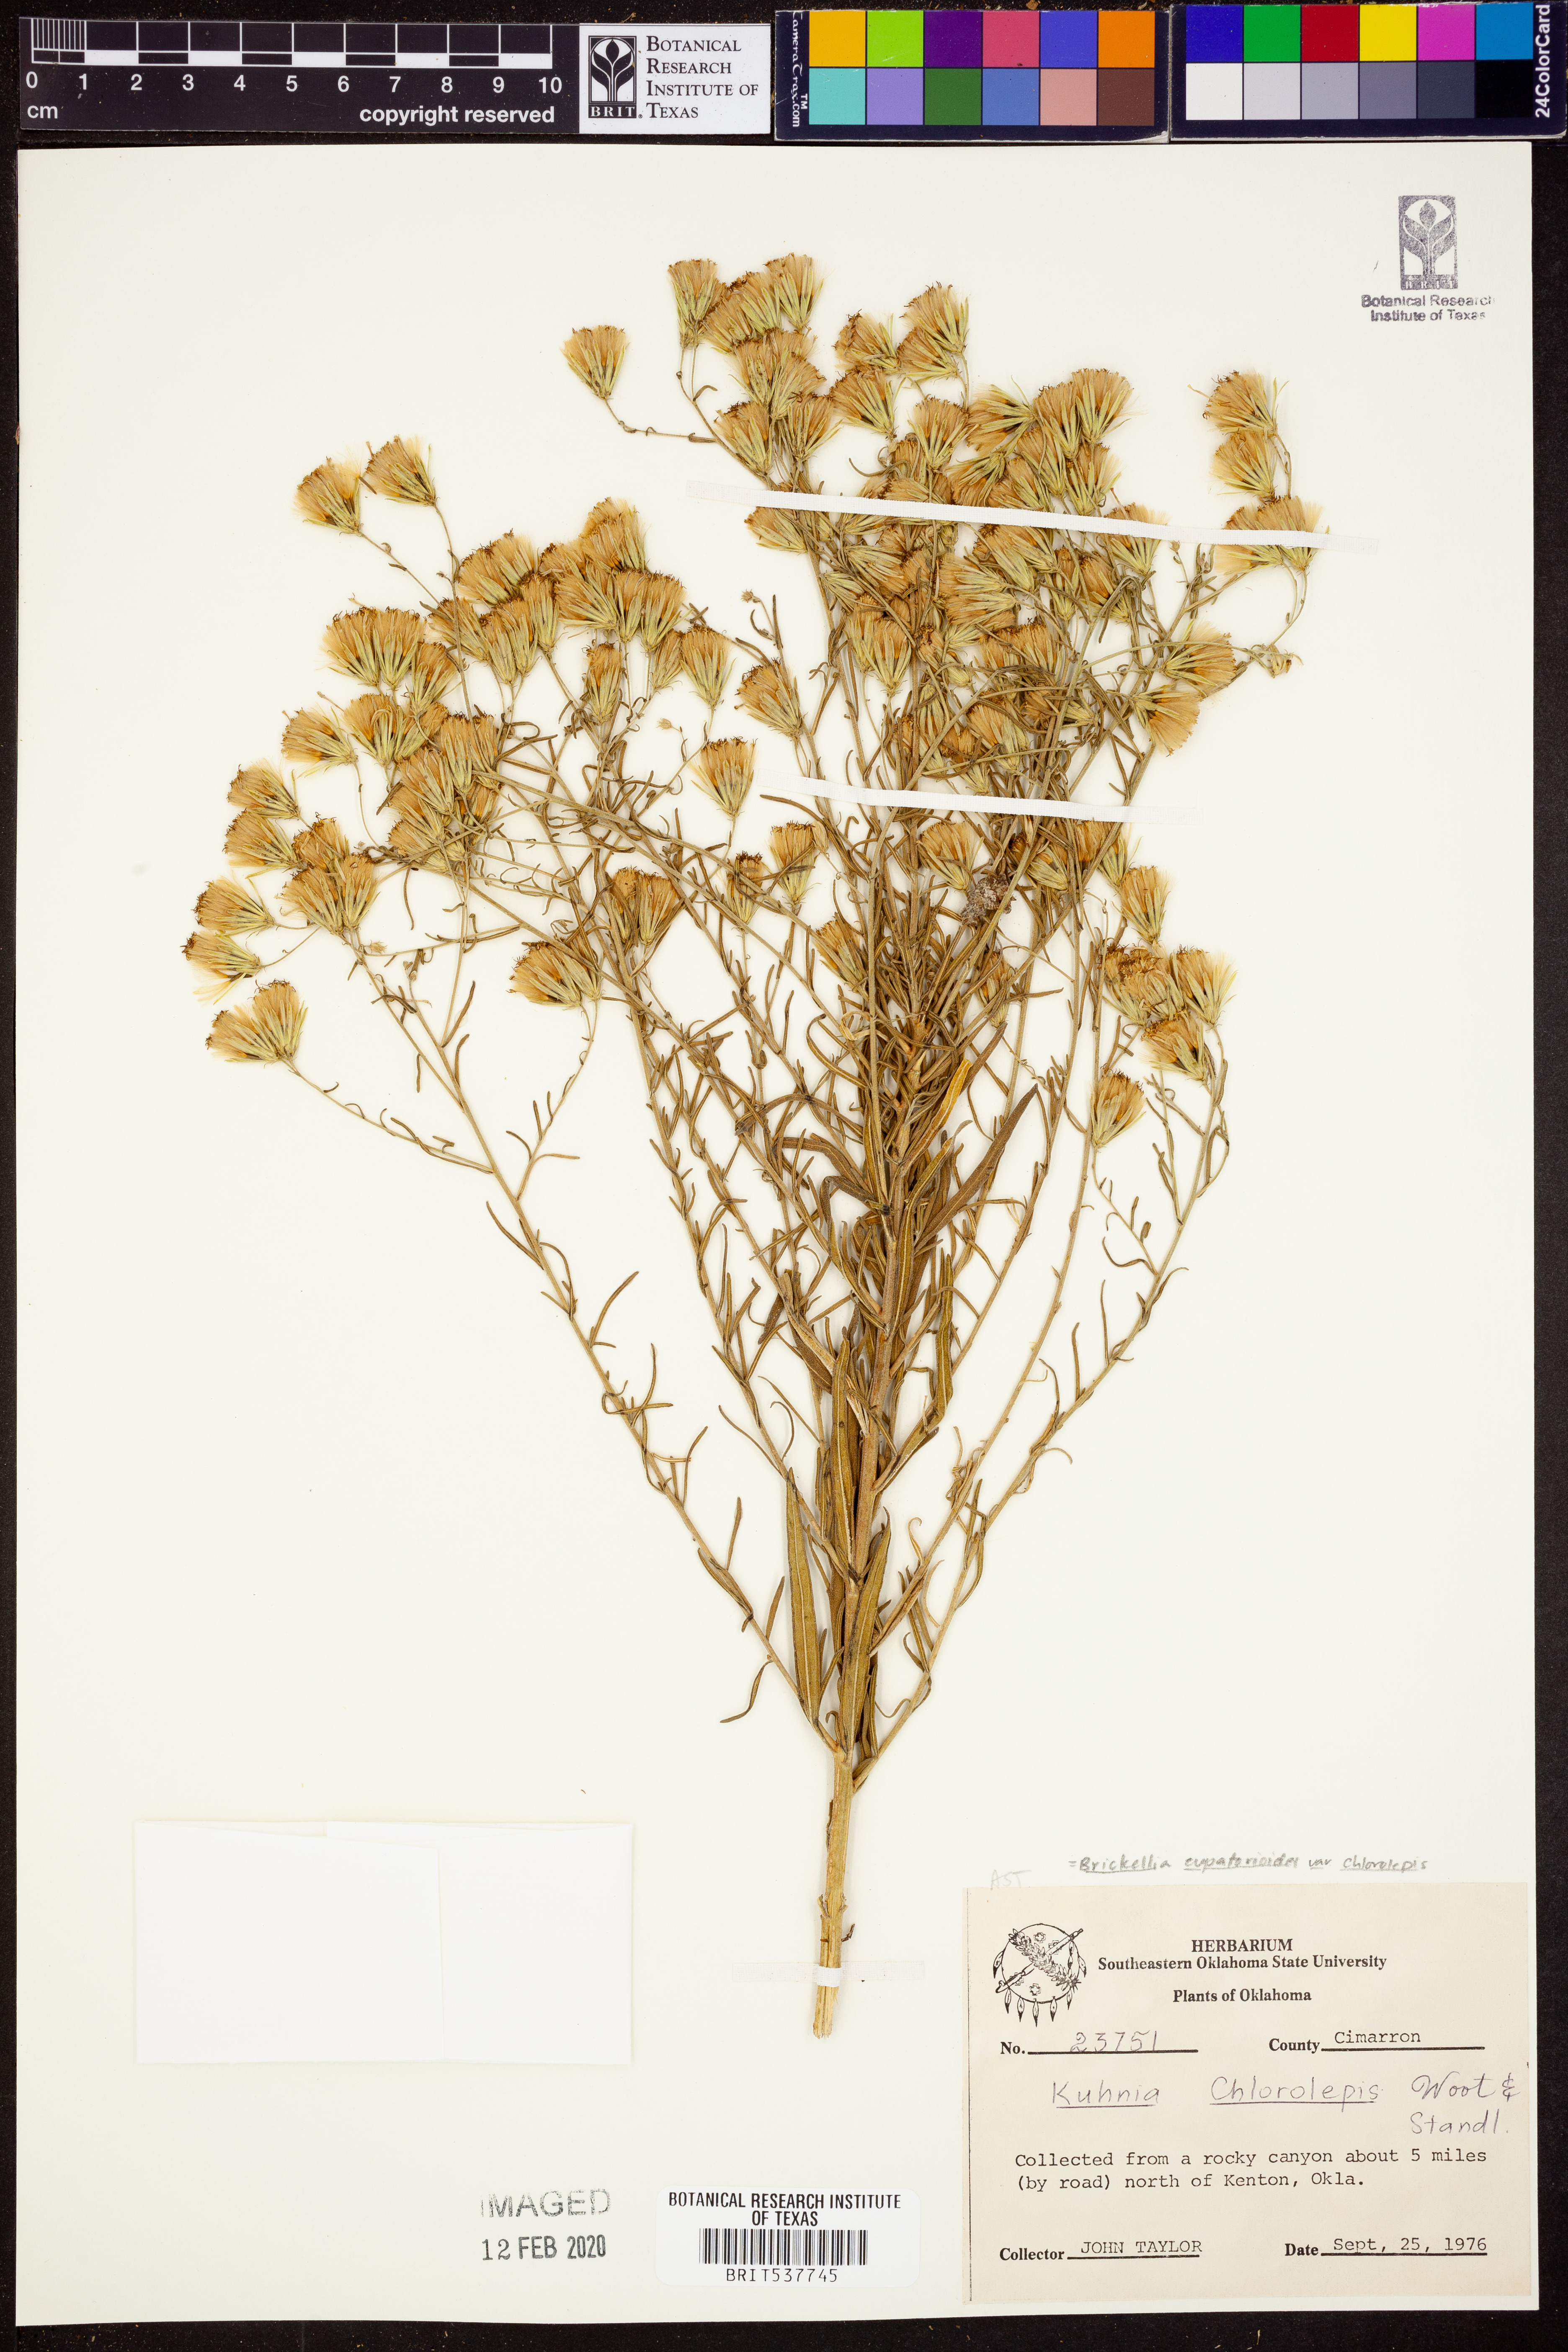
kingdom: Plantae
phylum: Tracheophyta
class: Magnoliopsida
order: Asterales
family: Asteraceae
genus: Brickellia
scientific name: Brickellia leptophylla
